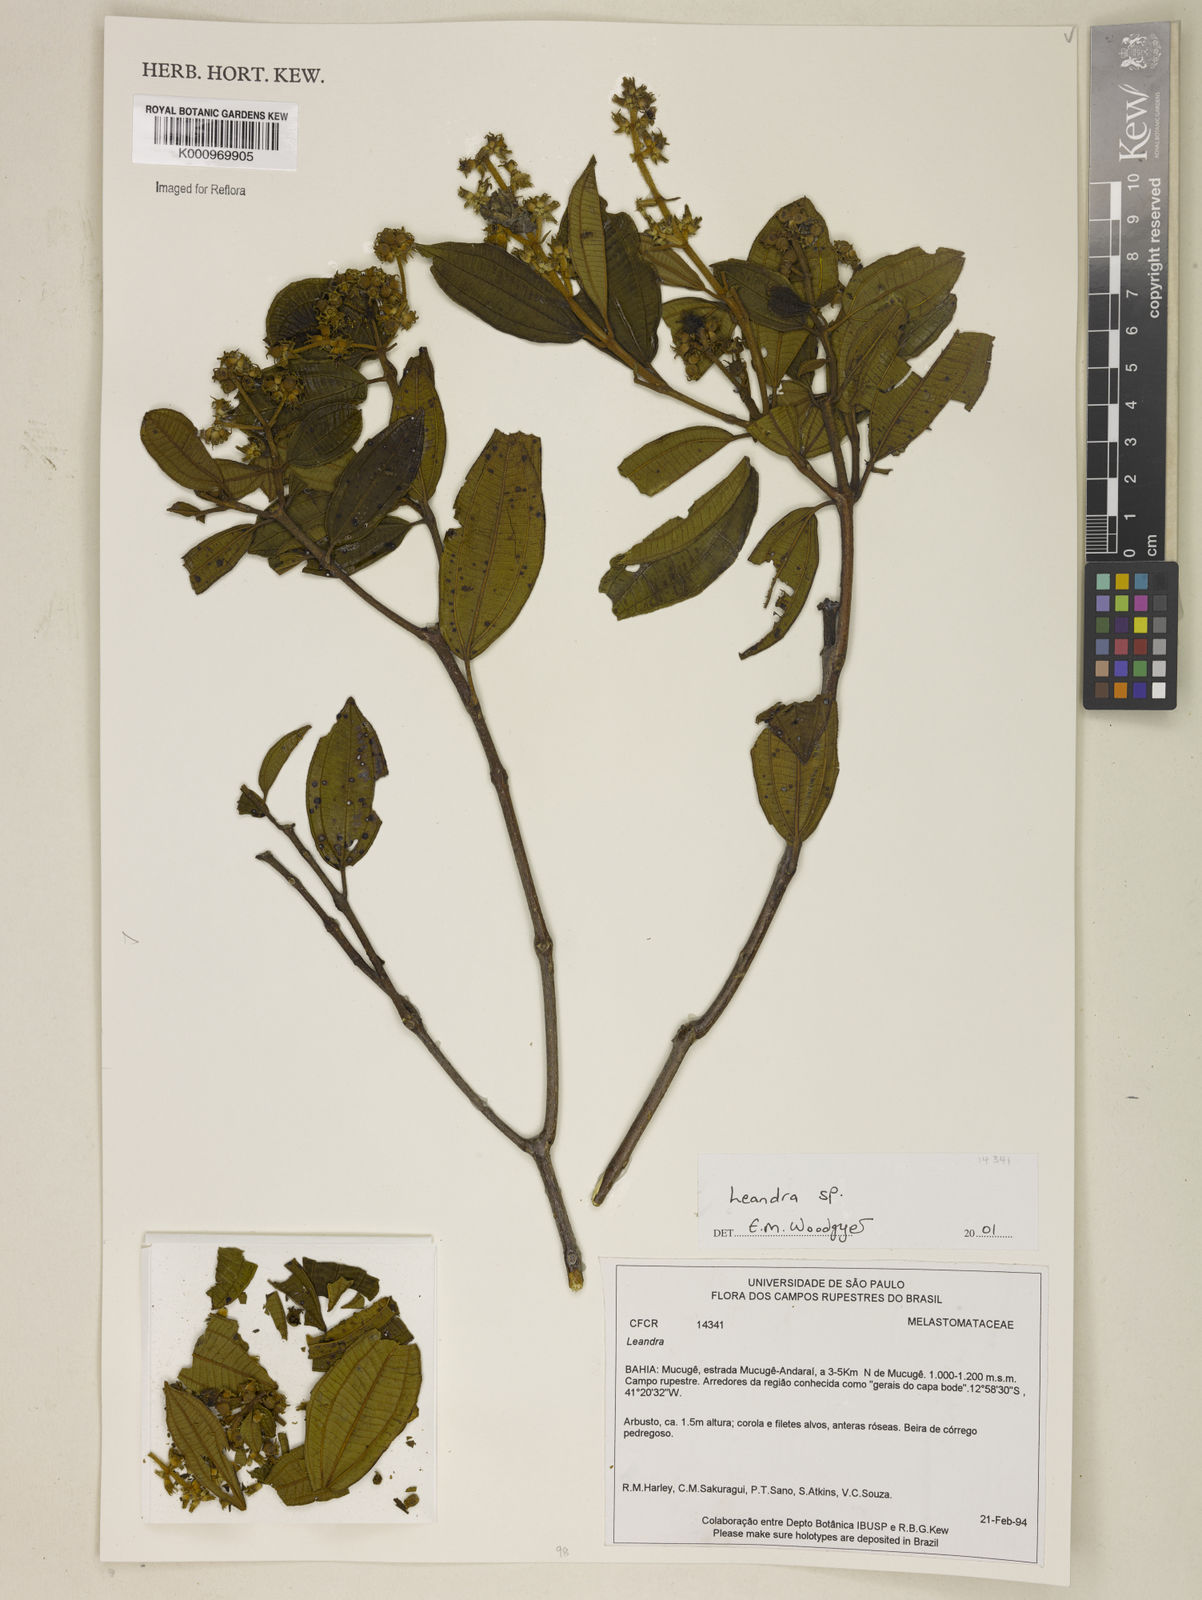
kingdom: Plantae
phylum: Tracheophyta
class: Magnoliopsida
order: Myrtales
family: Melastomataceae
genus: Miconia
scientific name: Miconia
